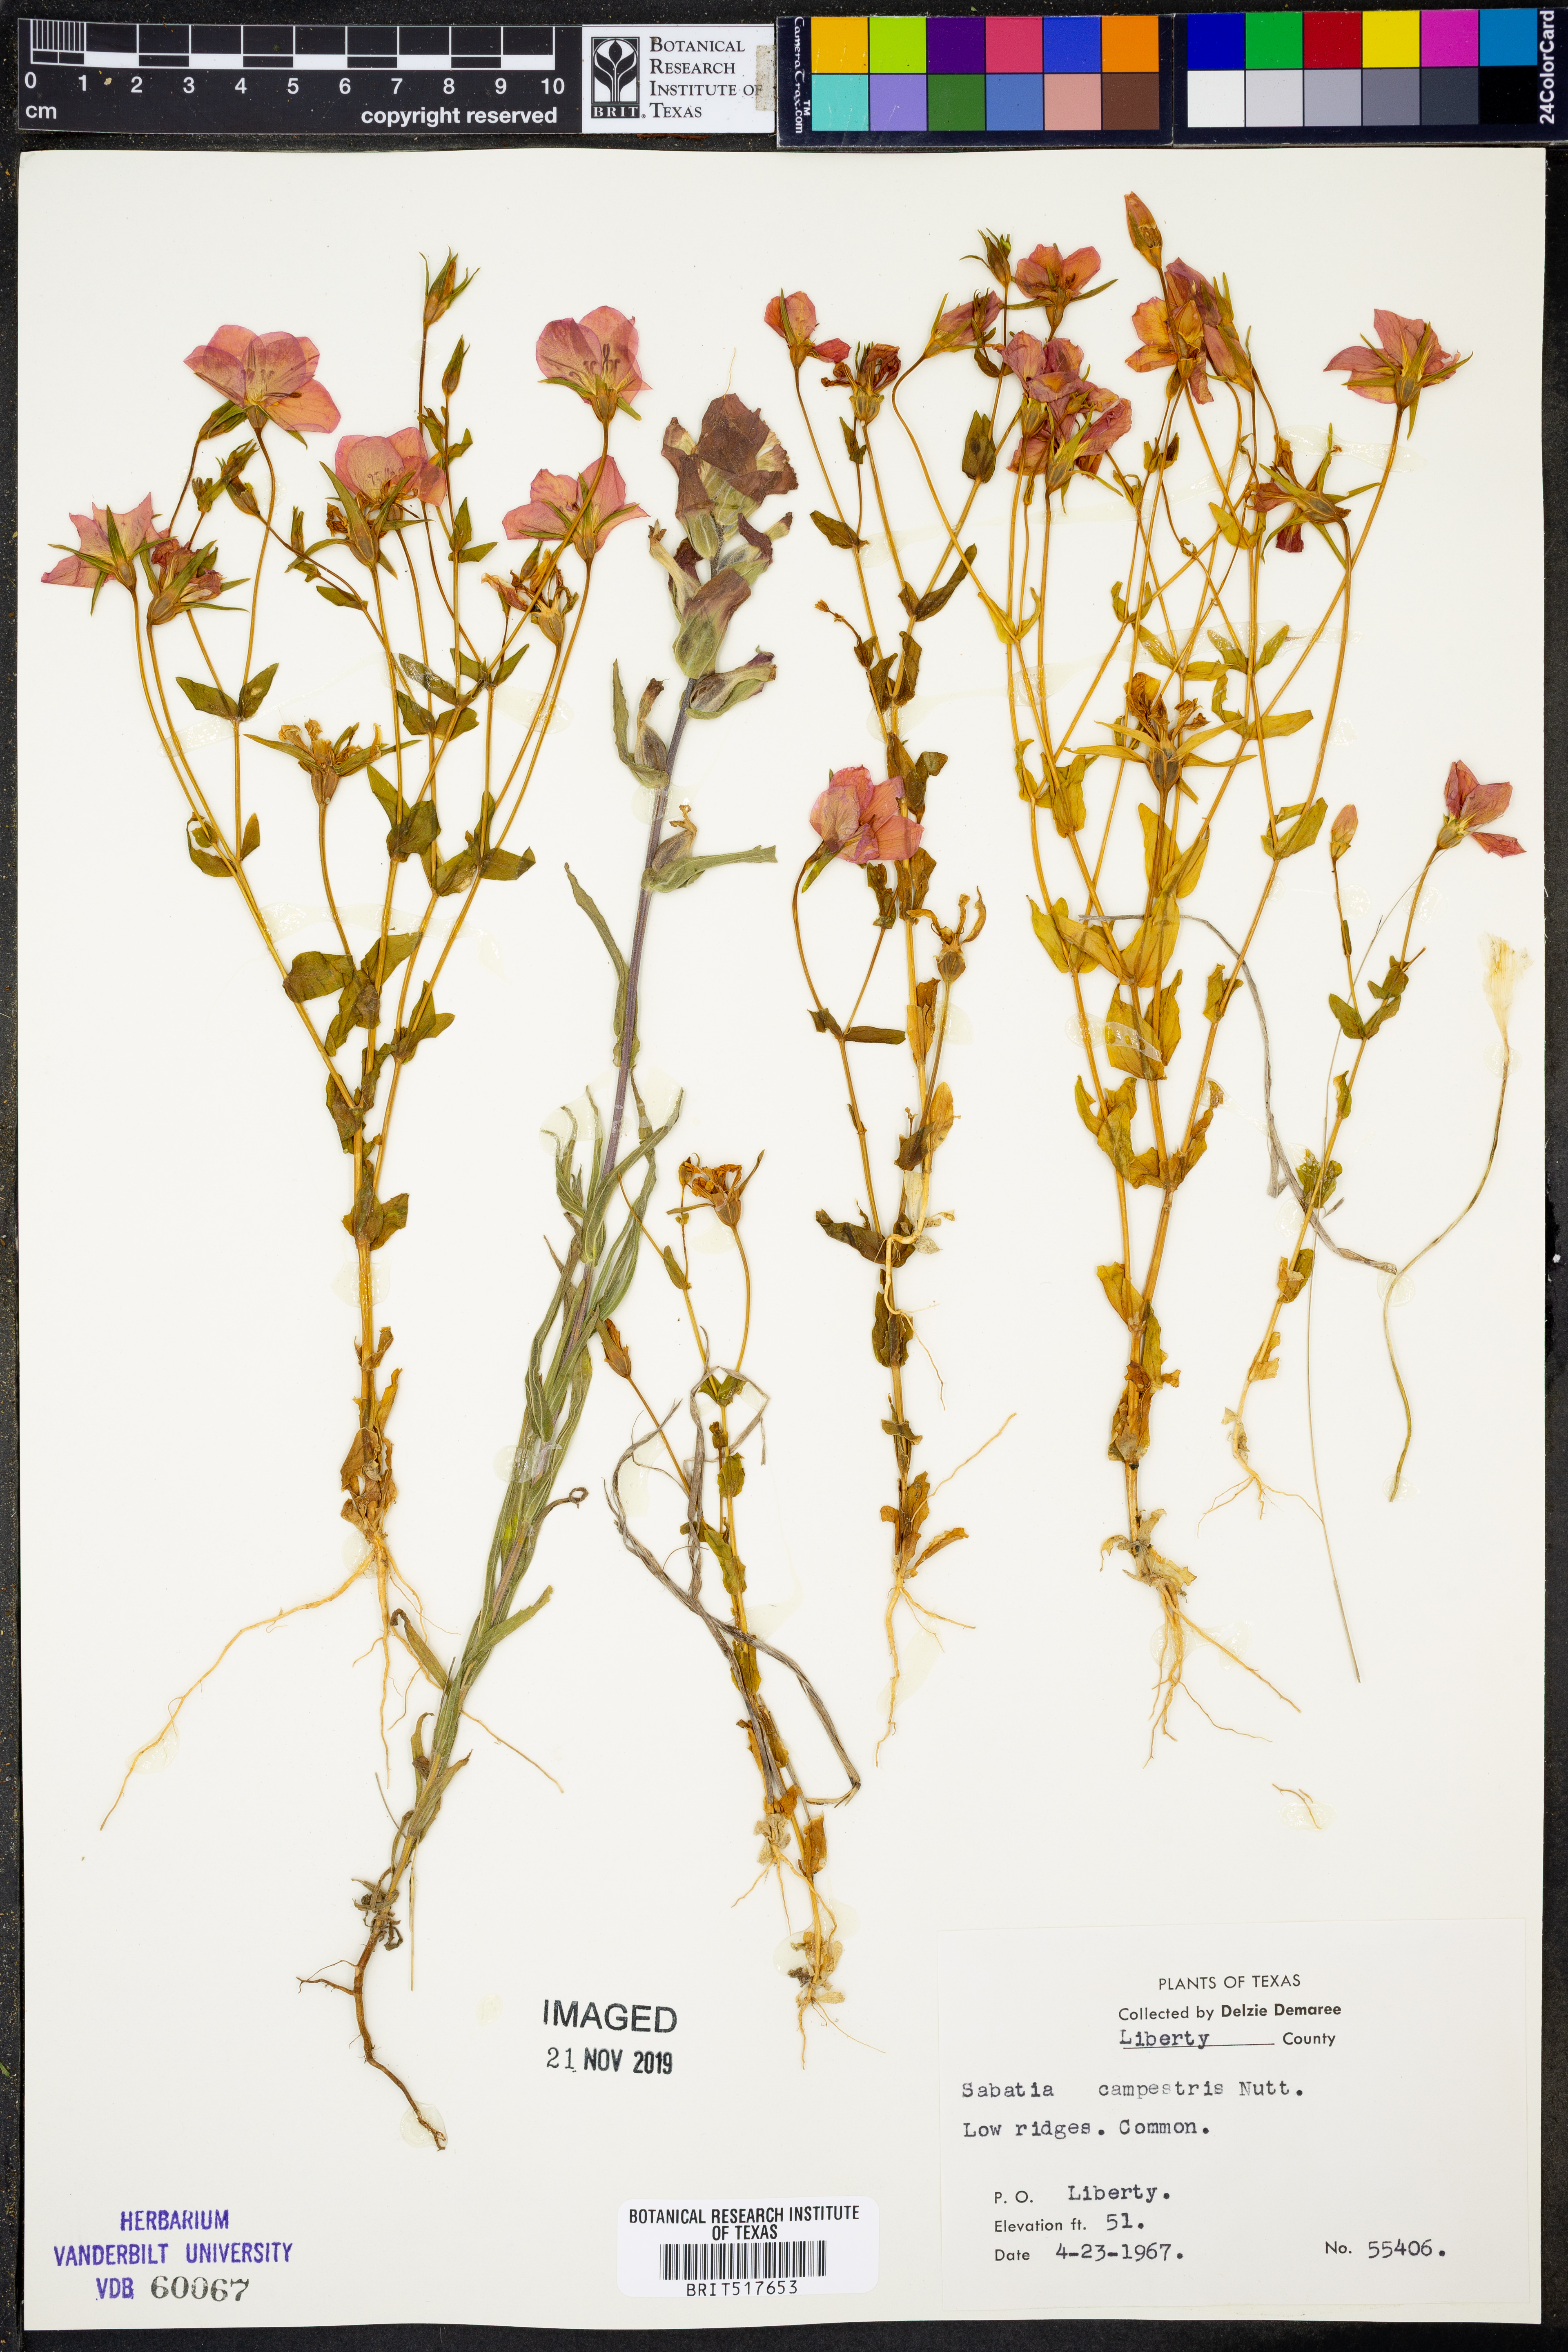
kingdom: Plantae
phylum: Tracheophyta
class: Magnoliopsida
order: Gentianales
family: Gentianaceae
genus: Sabatia
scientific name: Sabatia campestris
